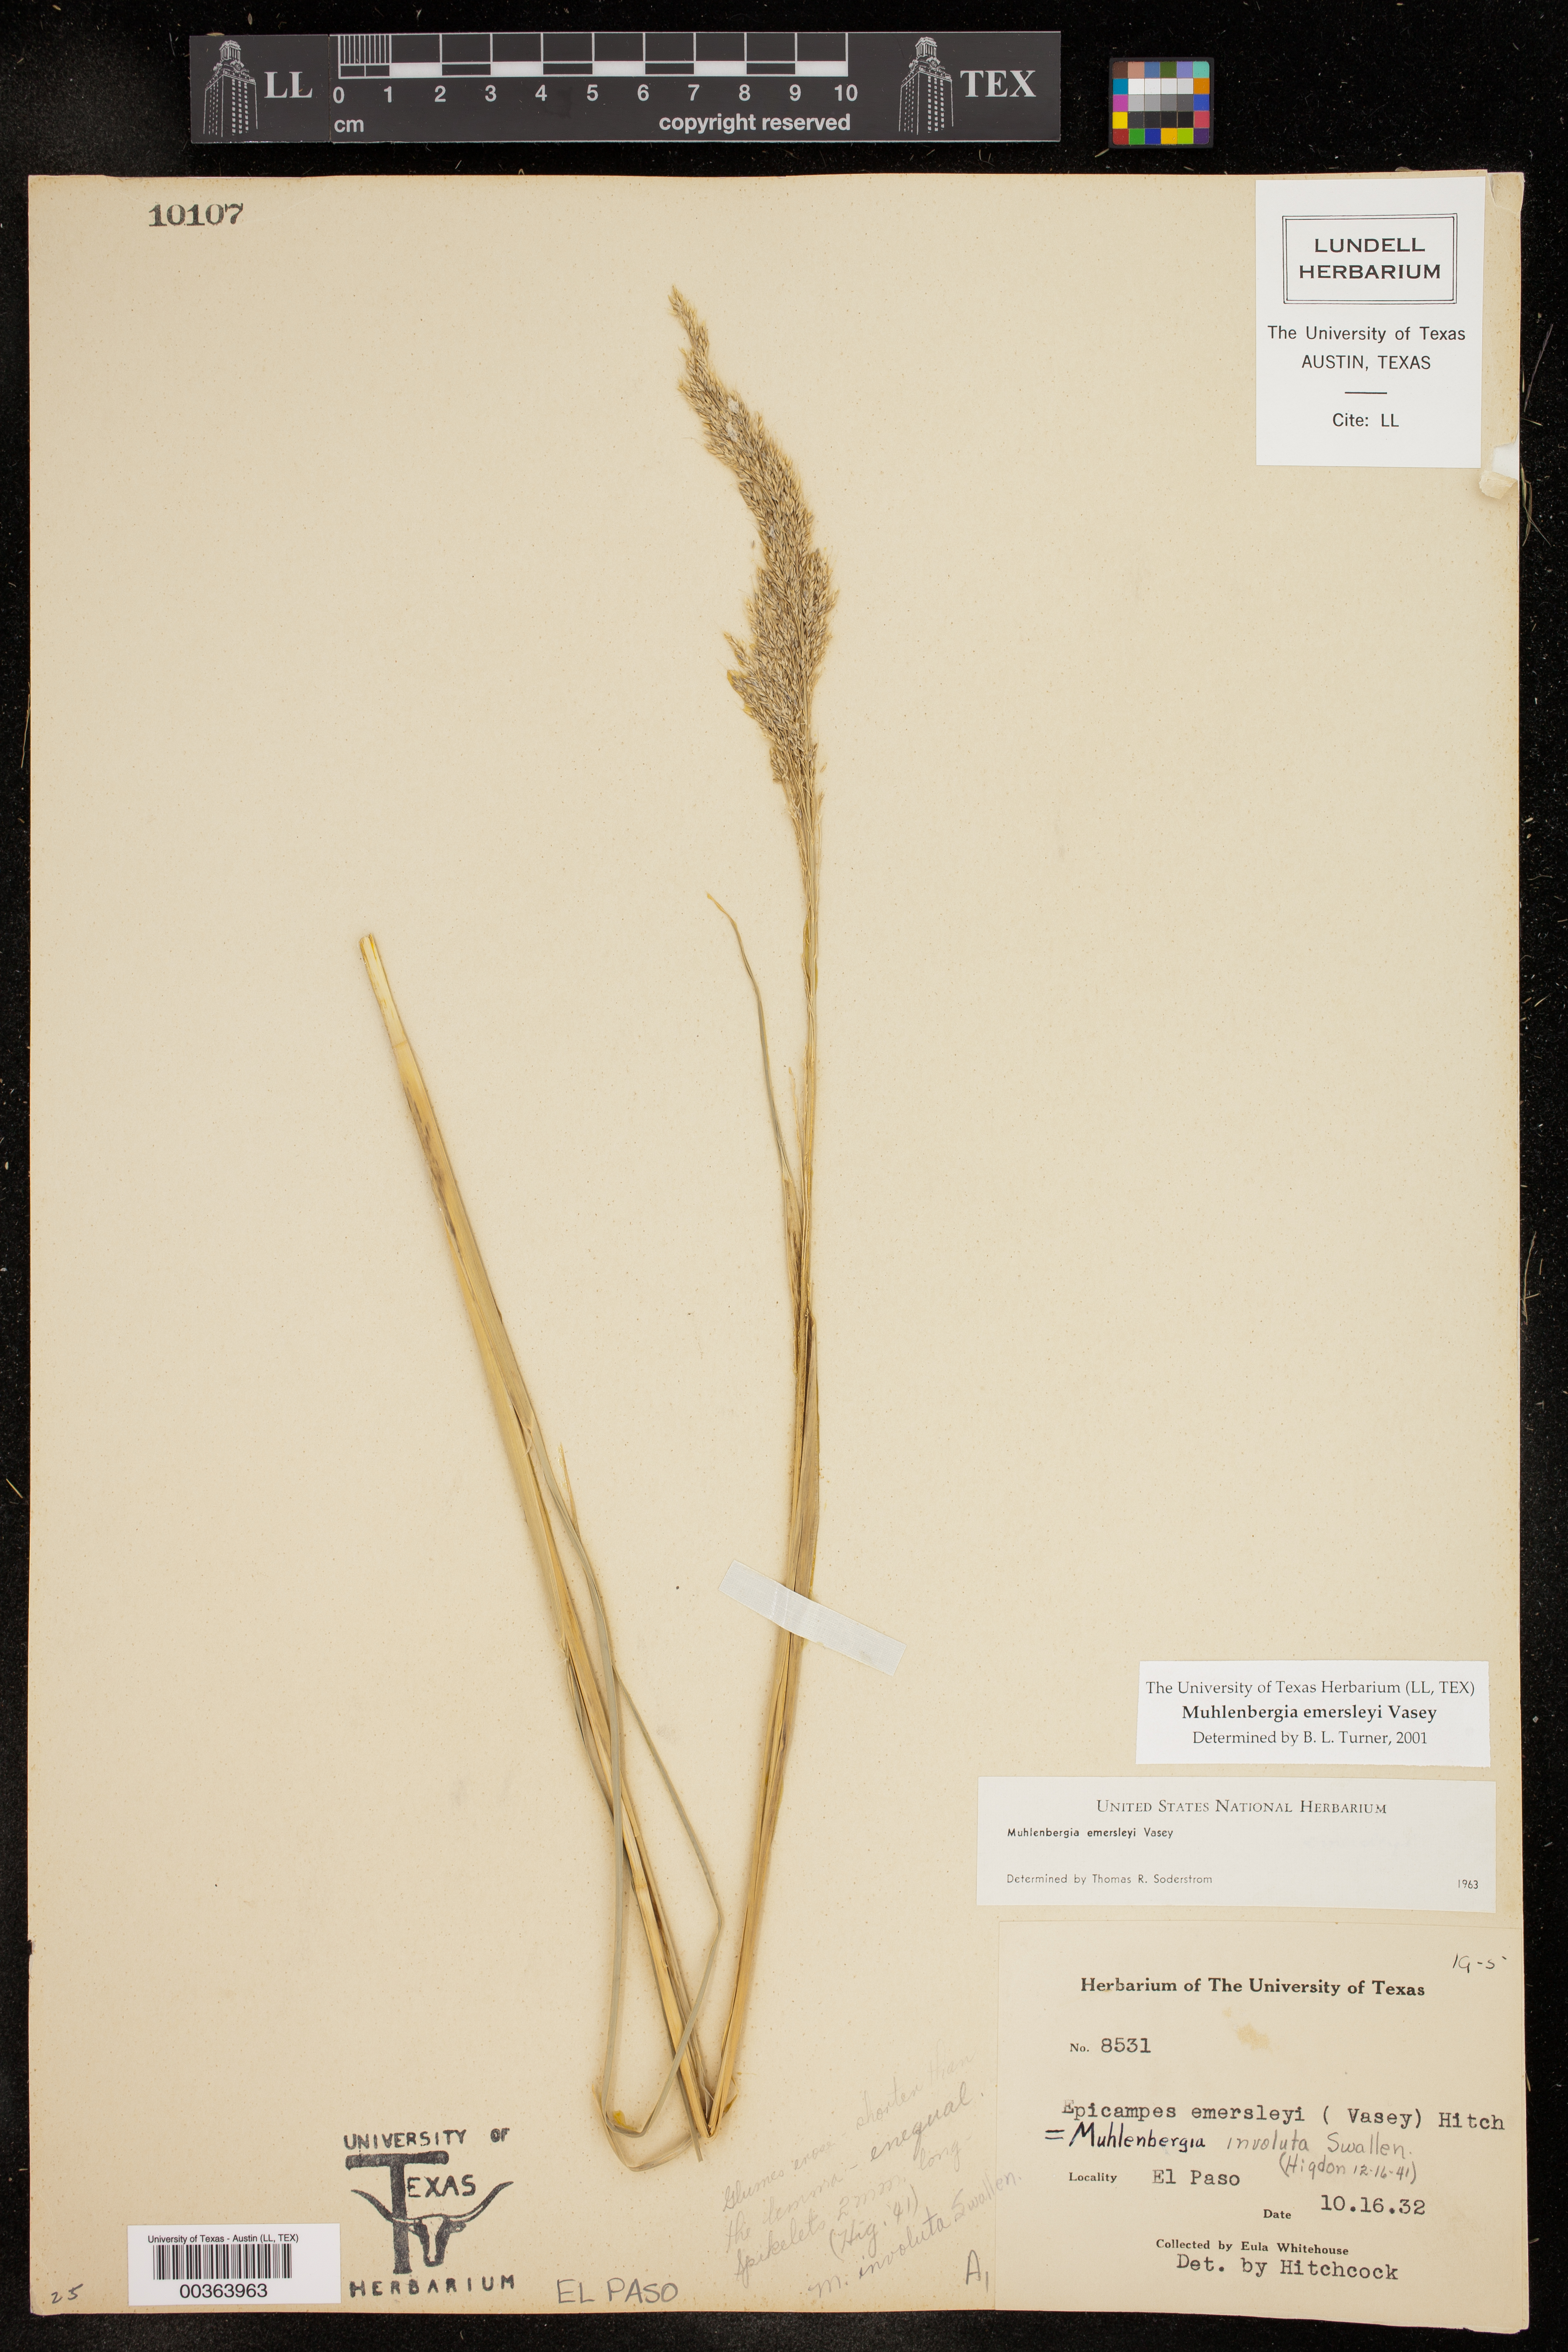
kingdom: Plantae
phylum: Tracheophyta
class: Liliopsida
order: Poales
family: Poaceae
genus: Muhlenbergia
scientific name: Muhlenbergia emersleyi
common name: Bull grass
